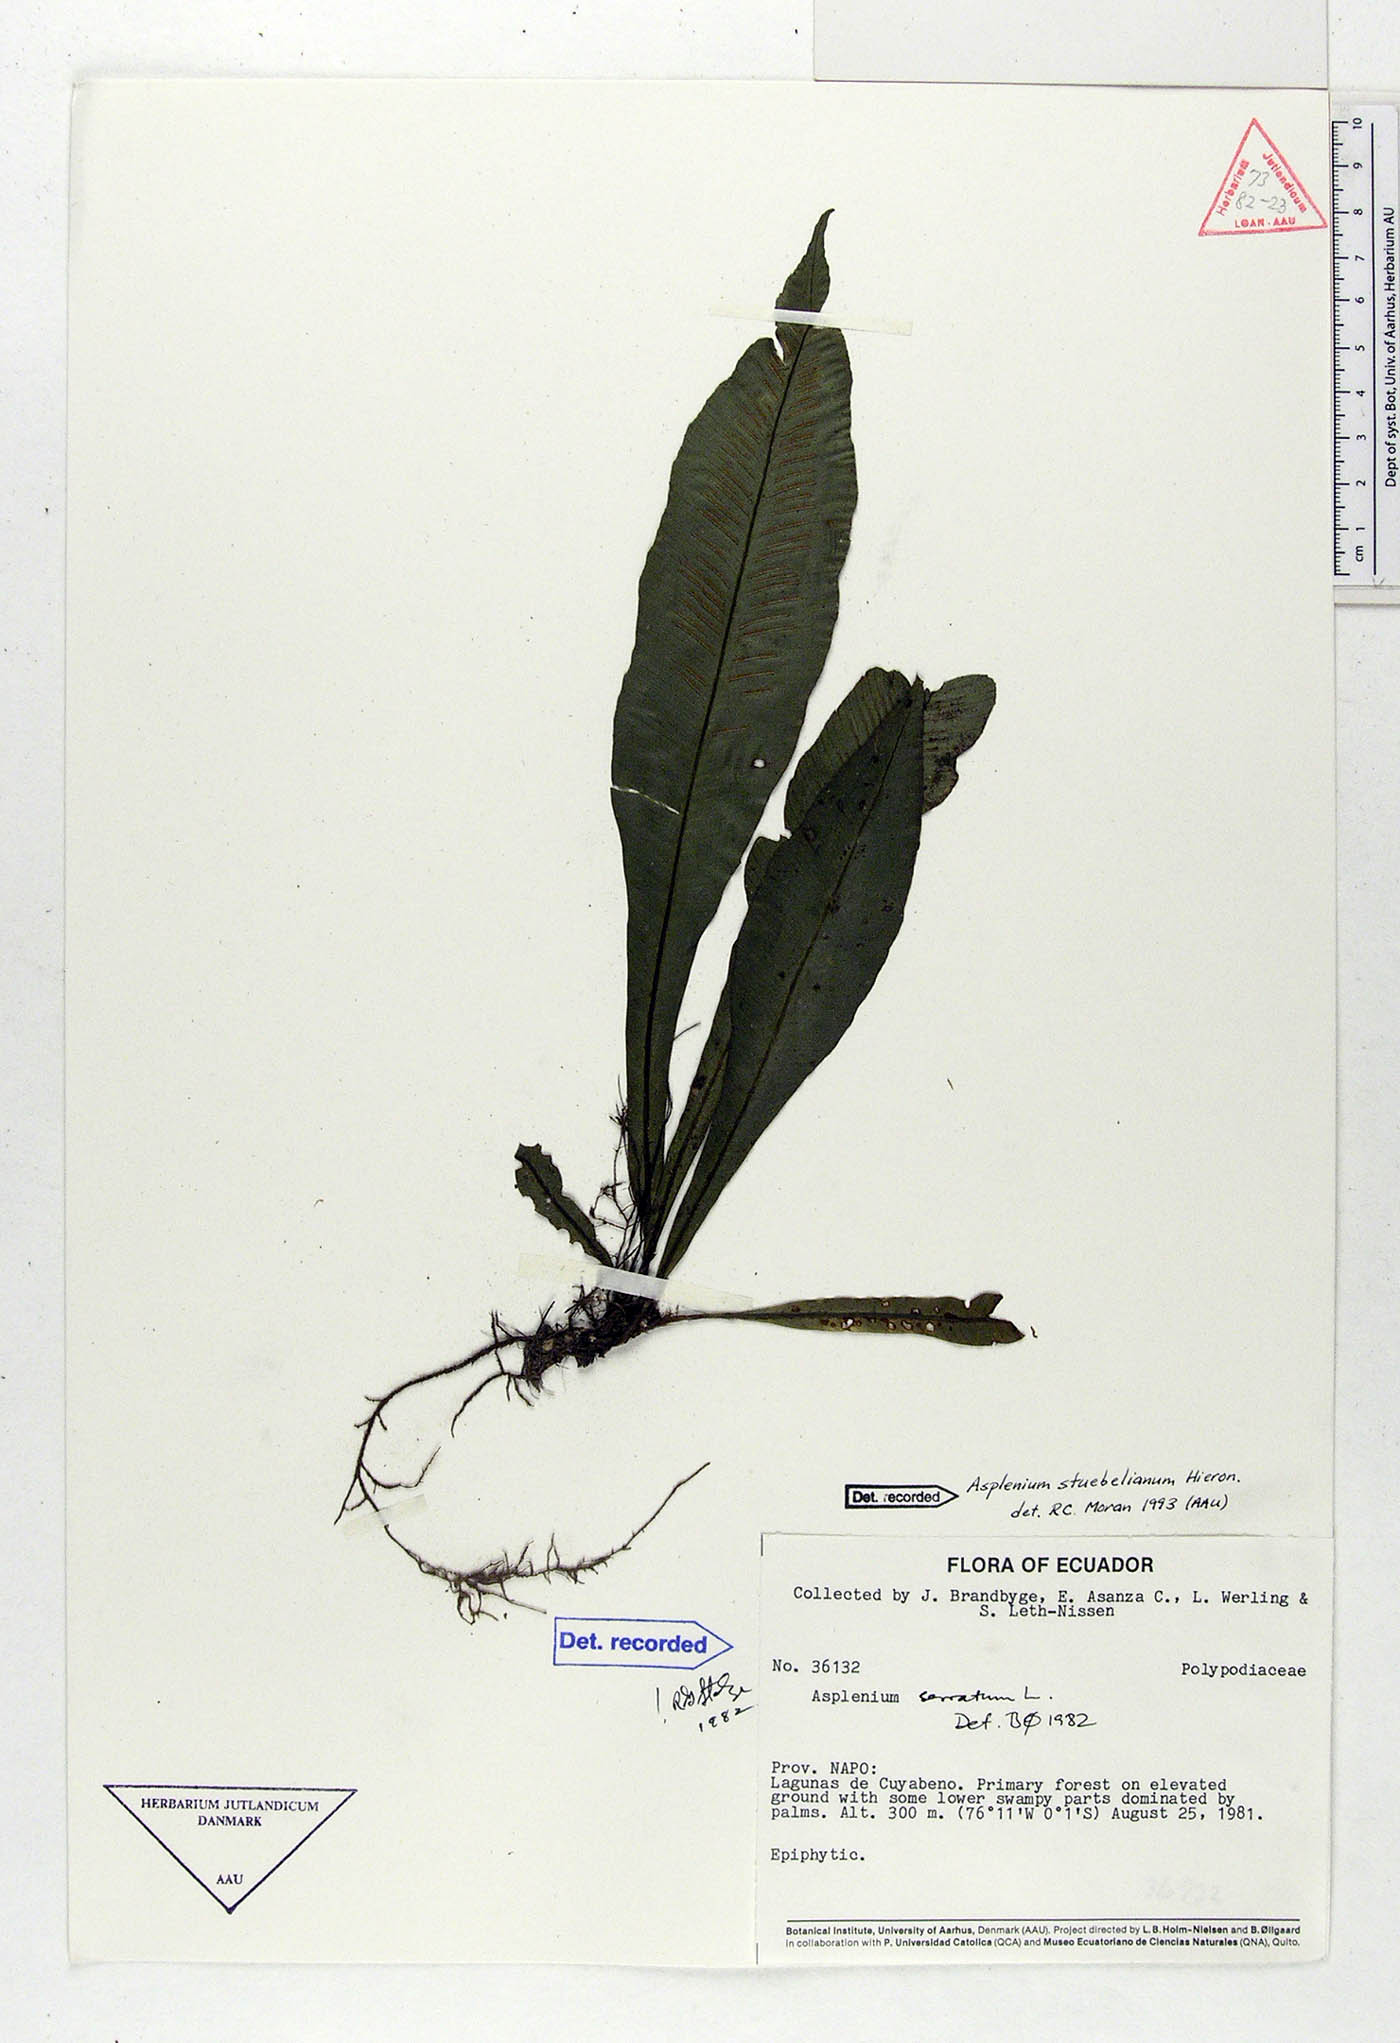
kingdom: Plantae
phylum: Tracheophyta
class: Polypodiopsida
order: Polypodiales
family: Aspleniaceae
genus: Asplenium
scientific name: Asplenium stuebelianum
